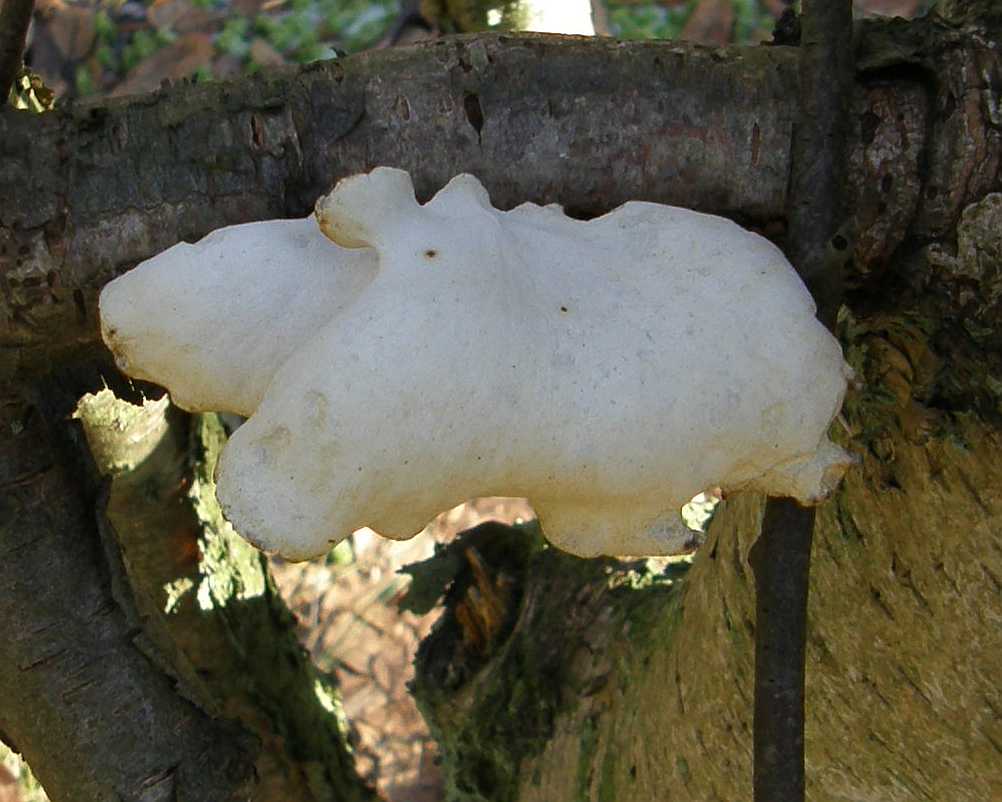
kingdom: Fungi
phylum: Basidiomycota
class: Agaricomycetes
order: Polyporales
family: Polyporaceae
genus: Cerioporus
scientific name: Cerioporus varius
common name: foranderlig stilkporesvamp
